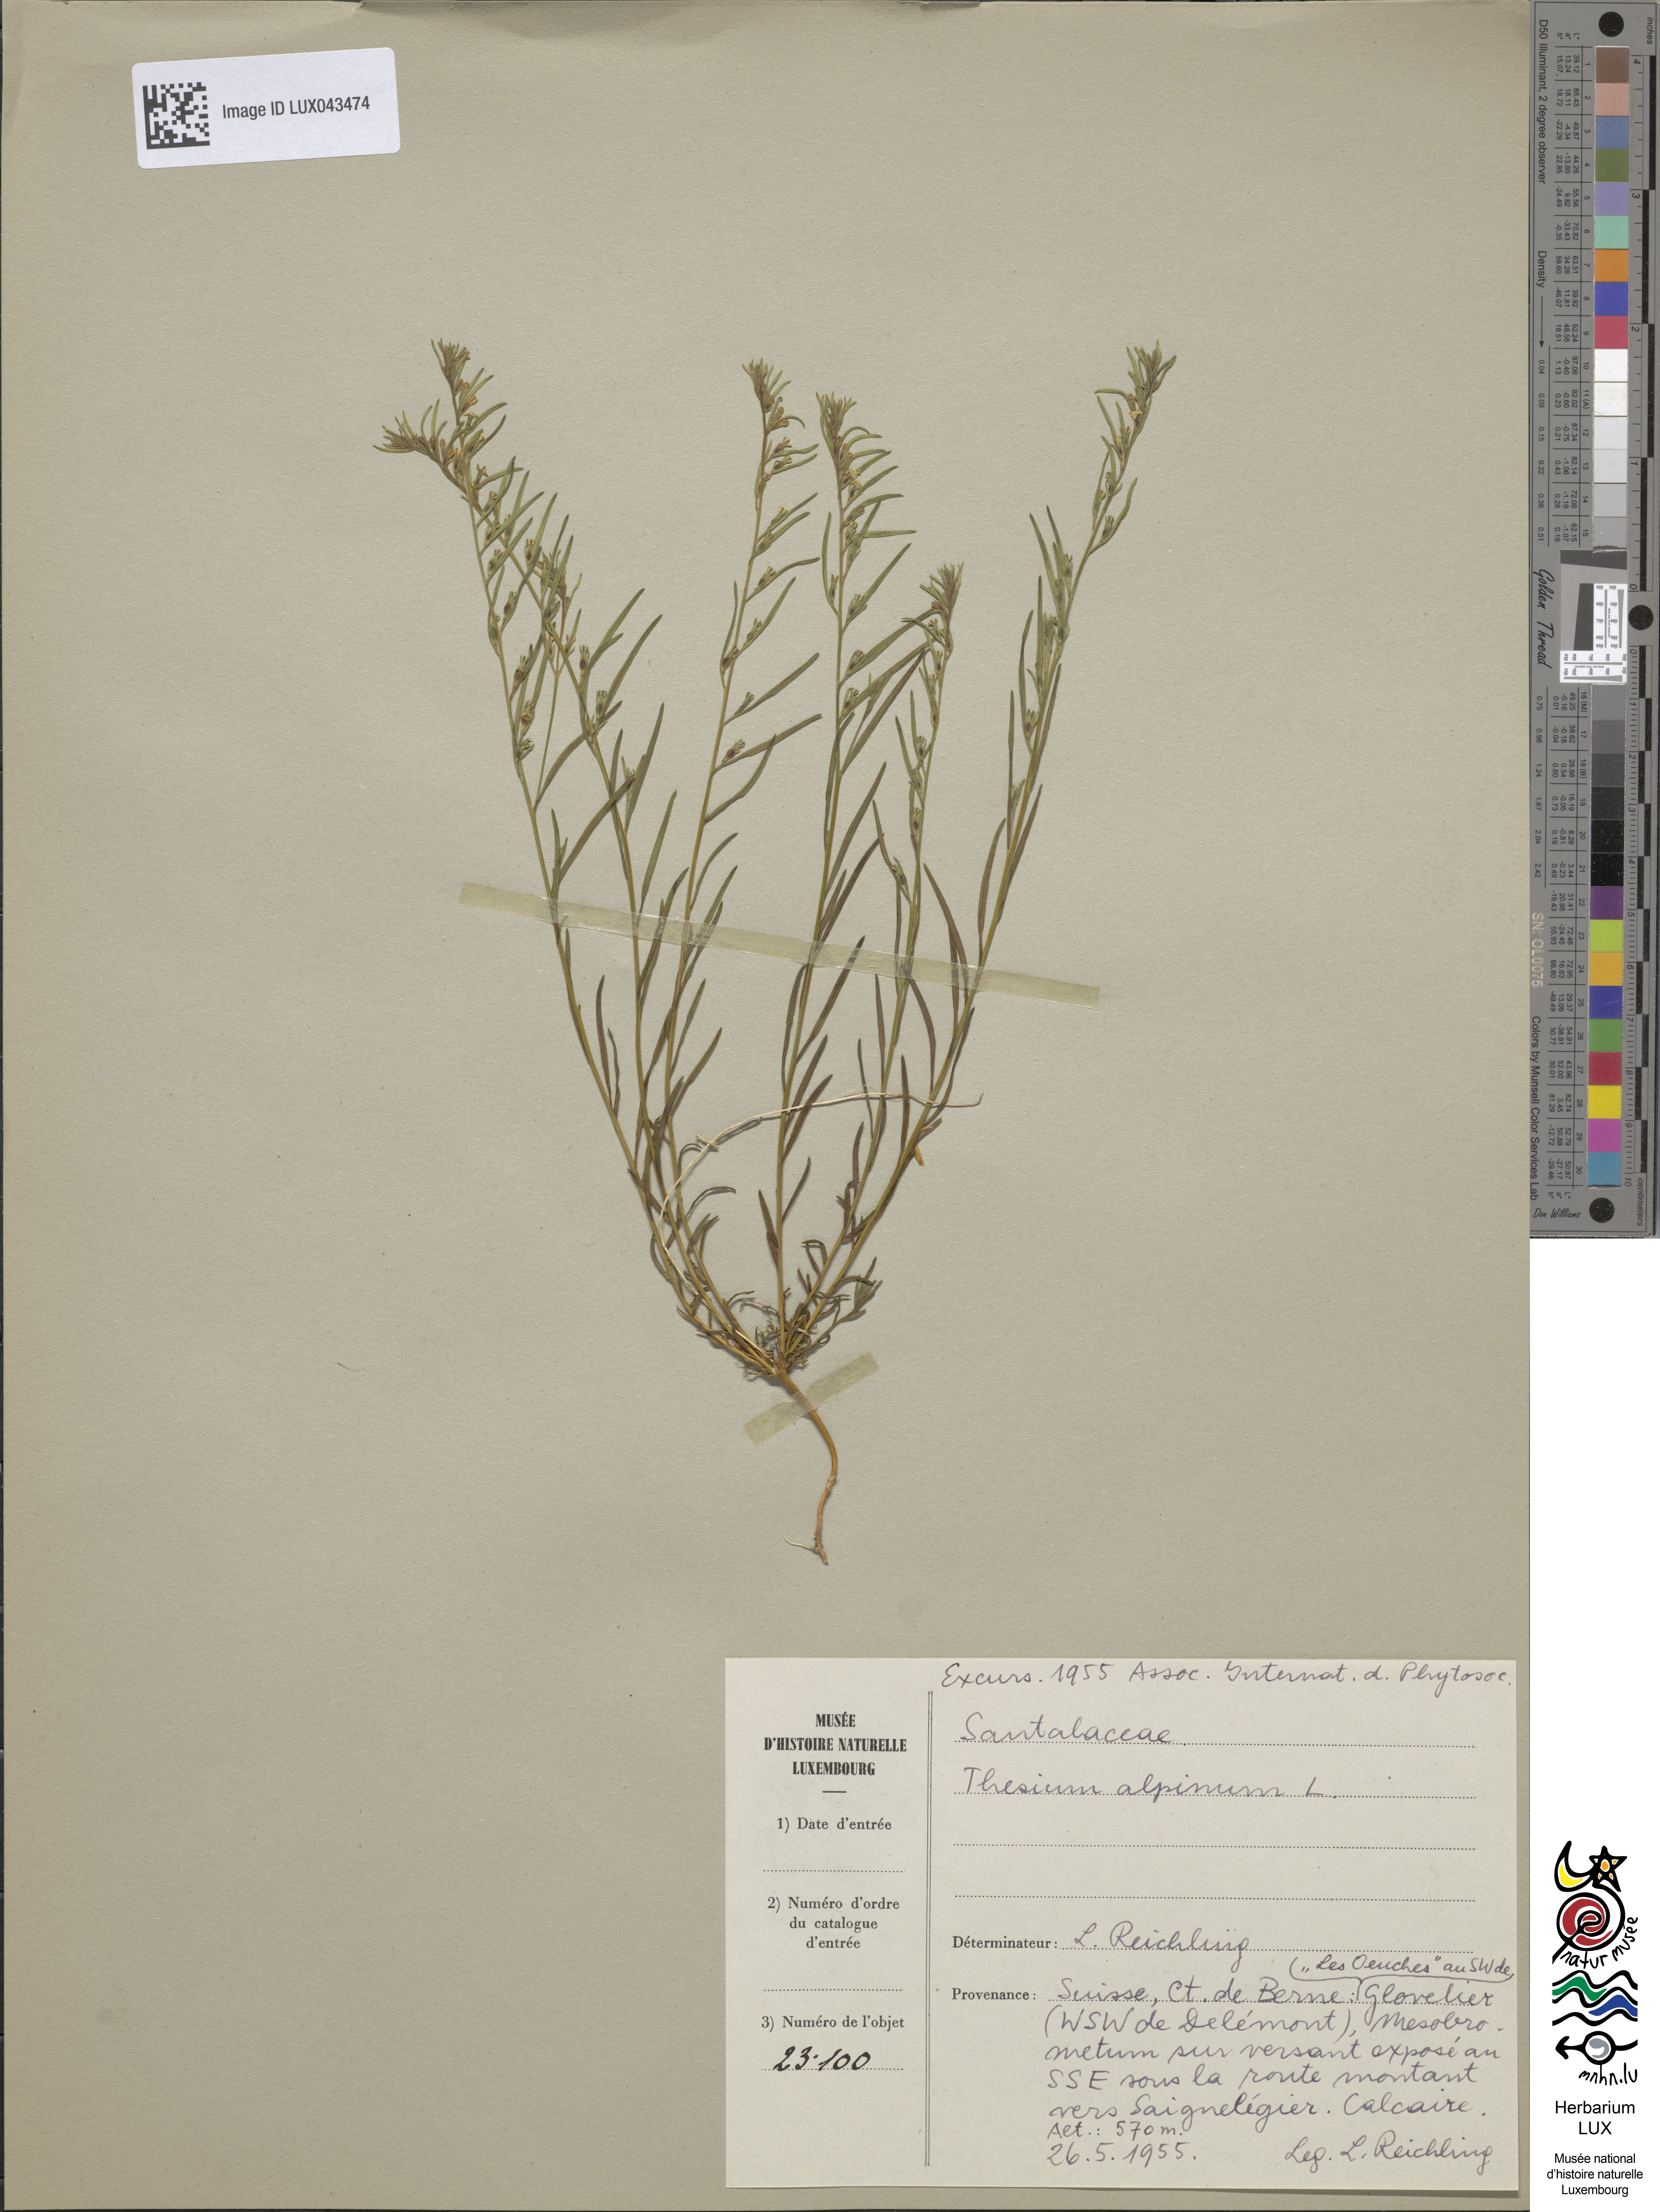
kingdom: Plantae
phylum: Tracheophyta
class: Magnoliopsida
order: Santalales
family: Thesiaceae
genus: Thesium
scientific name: Thesium alpinum
